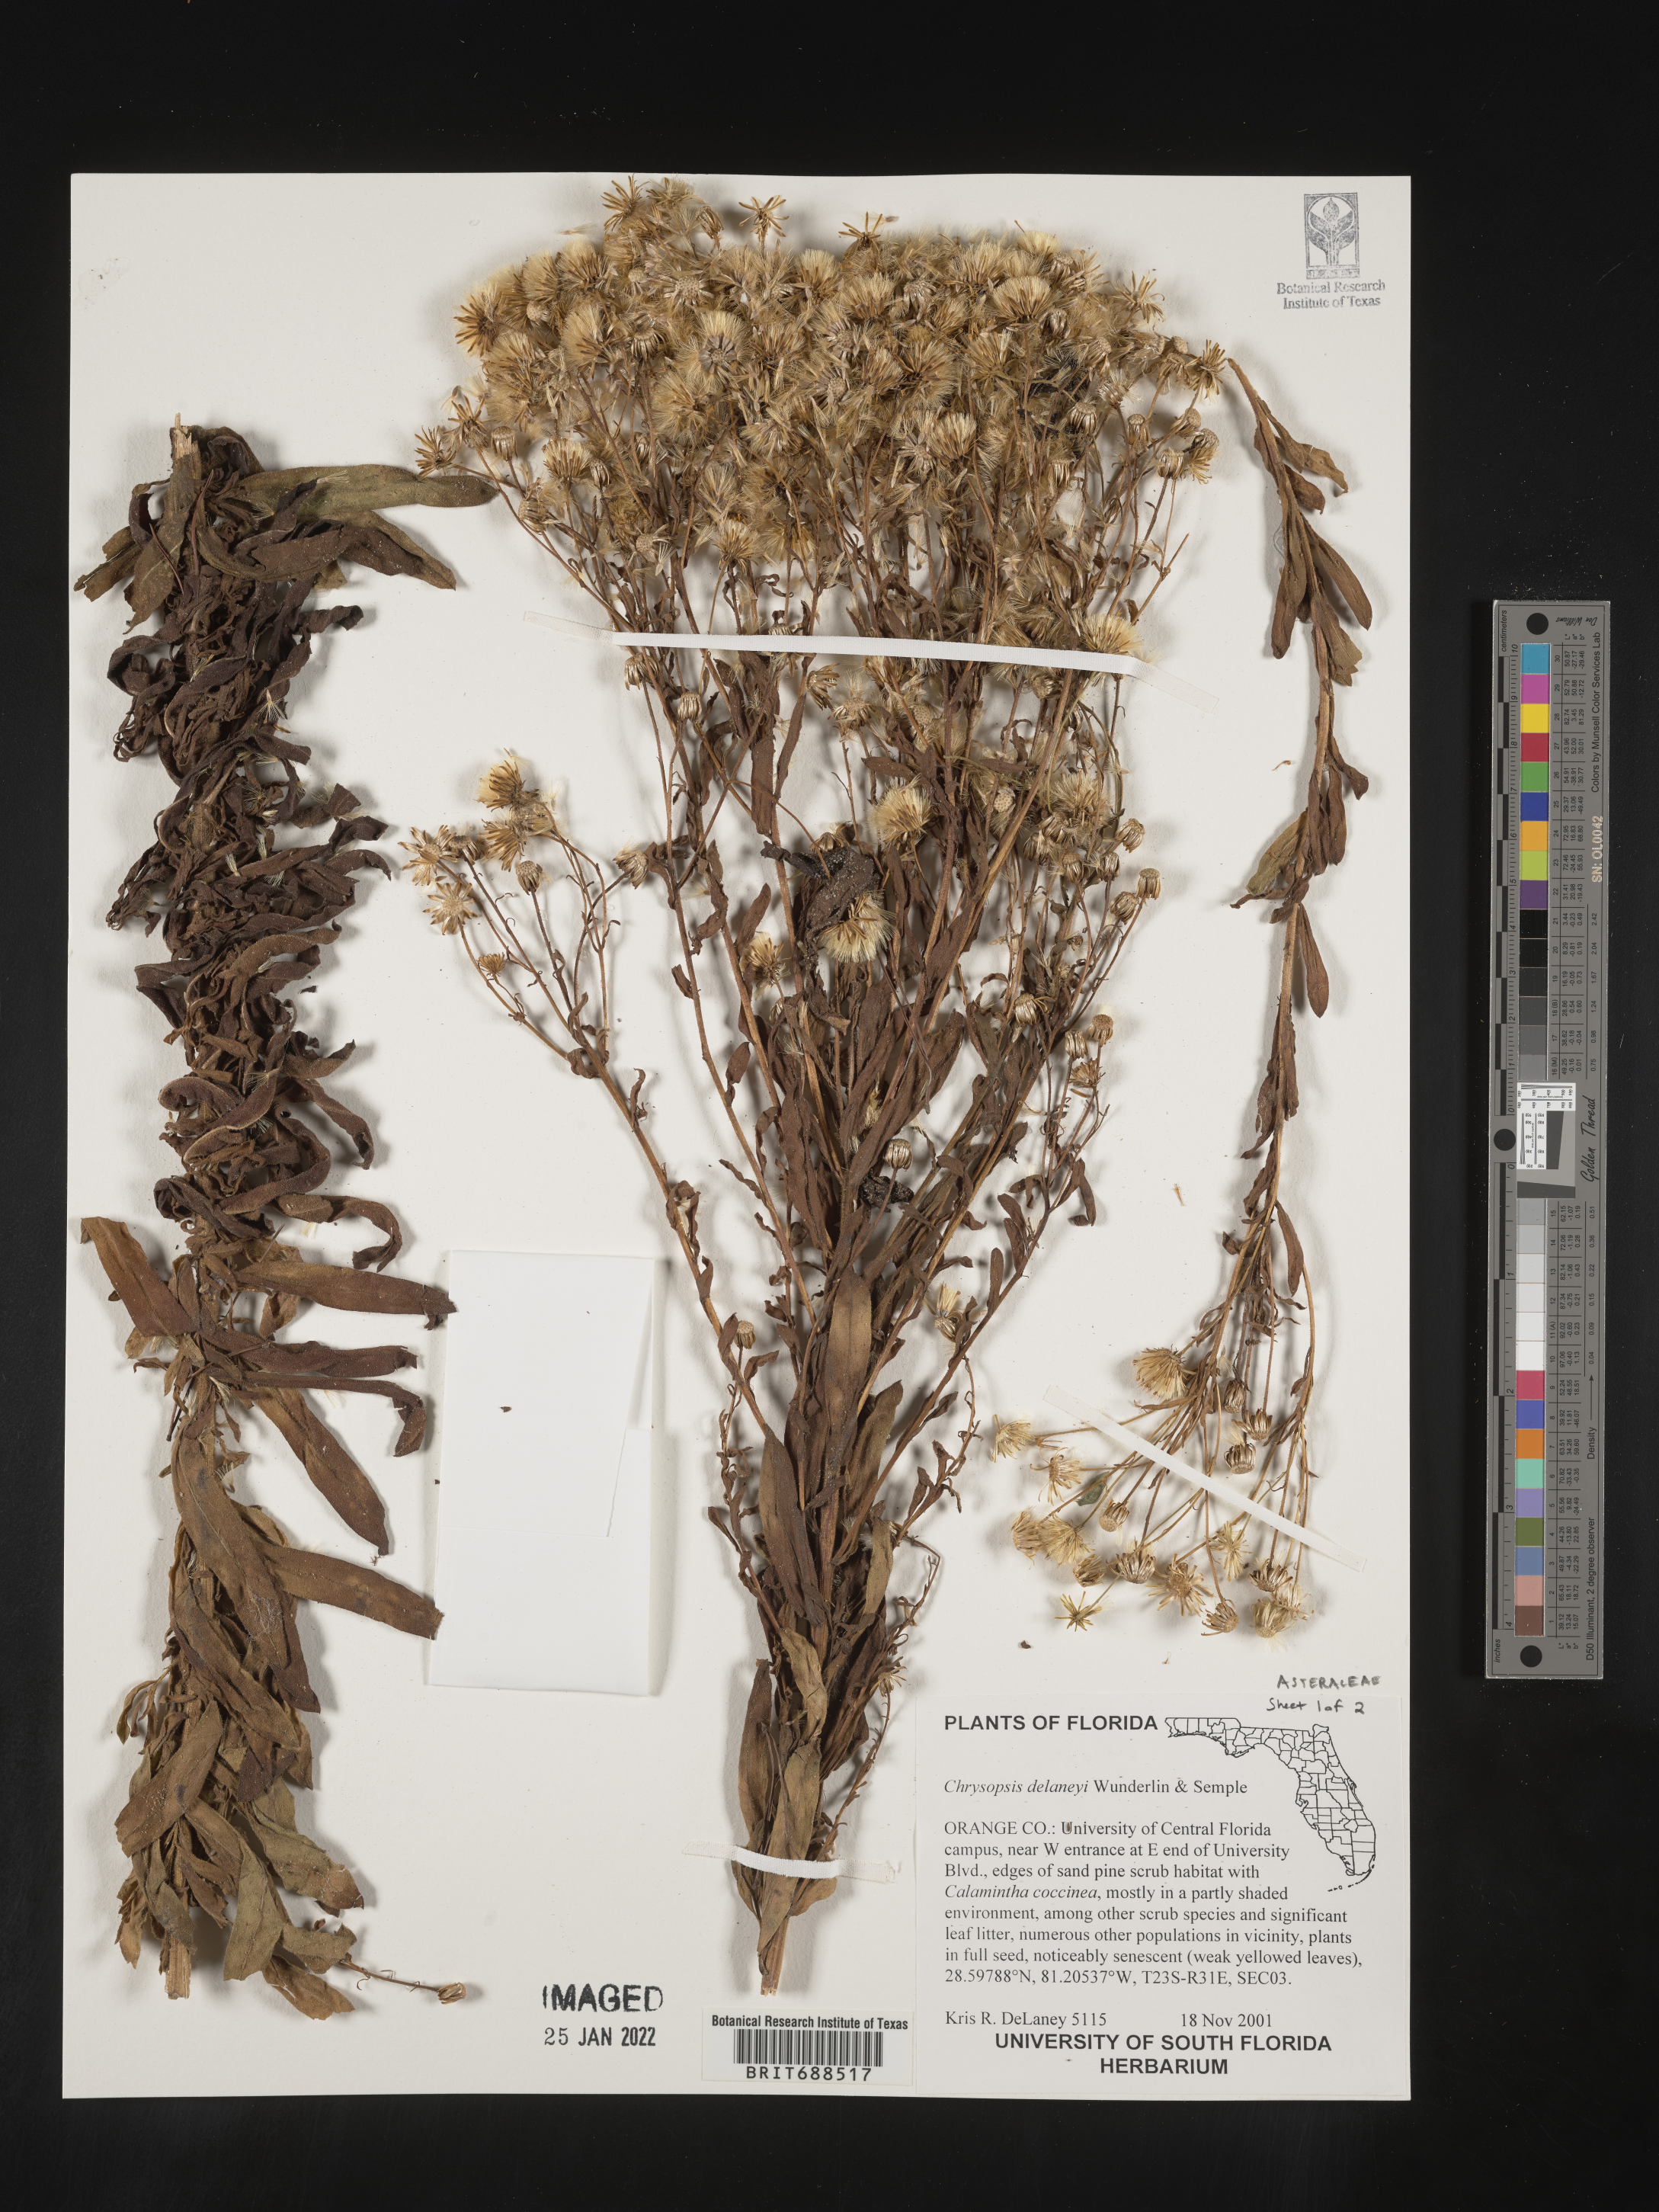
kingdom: Plantae
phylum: Tracheophyta
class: Magnoliopsida
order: Asterales
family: Asteraceae
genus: Chrysopsis
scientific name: Chrysopsis delaneyi
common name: Delaney's goldenaster
